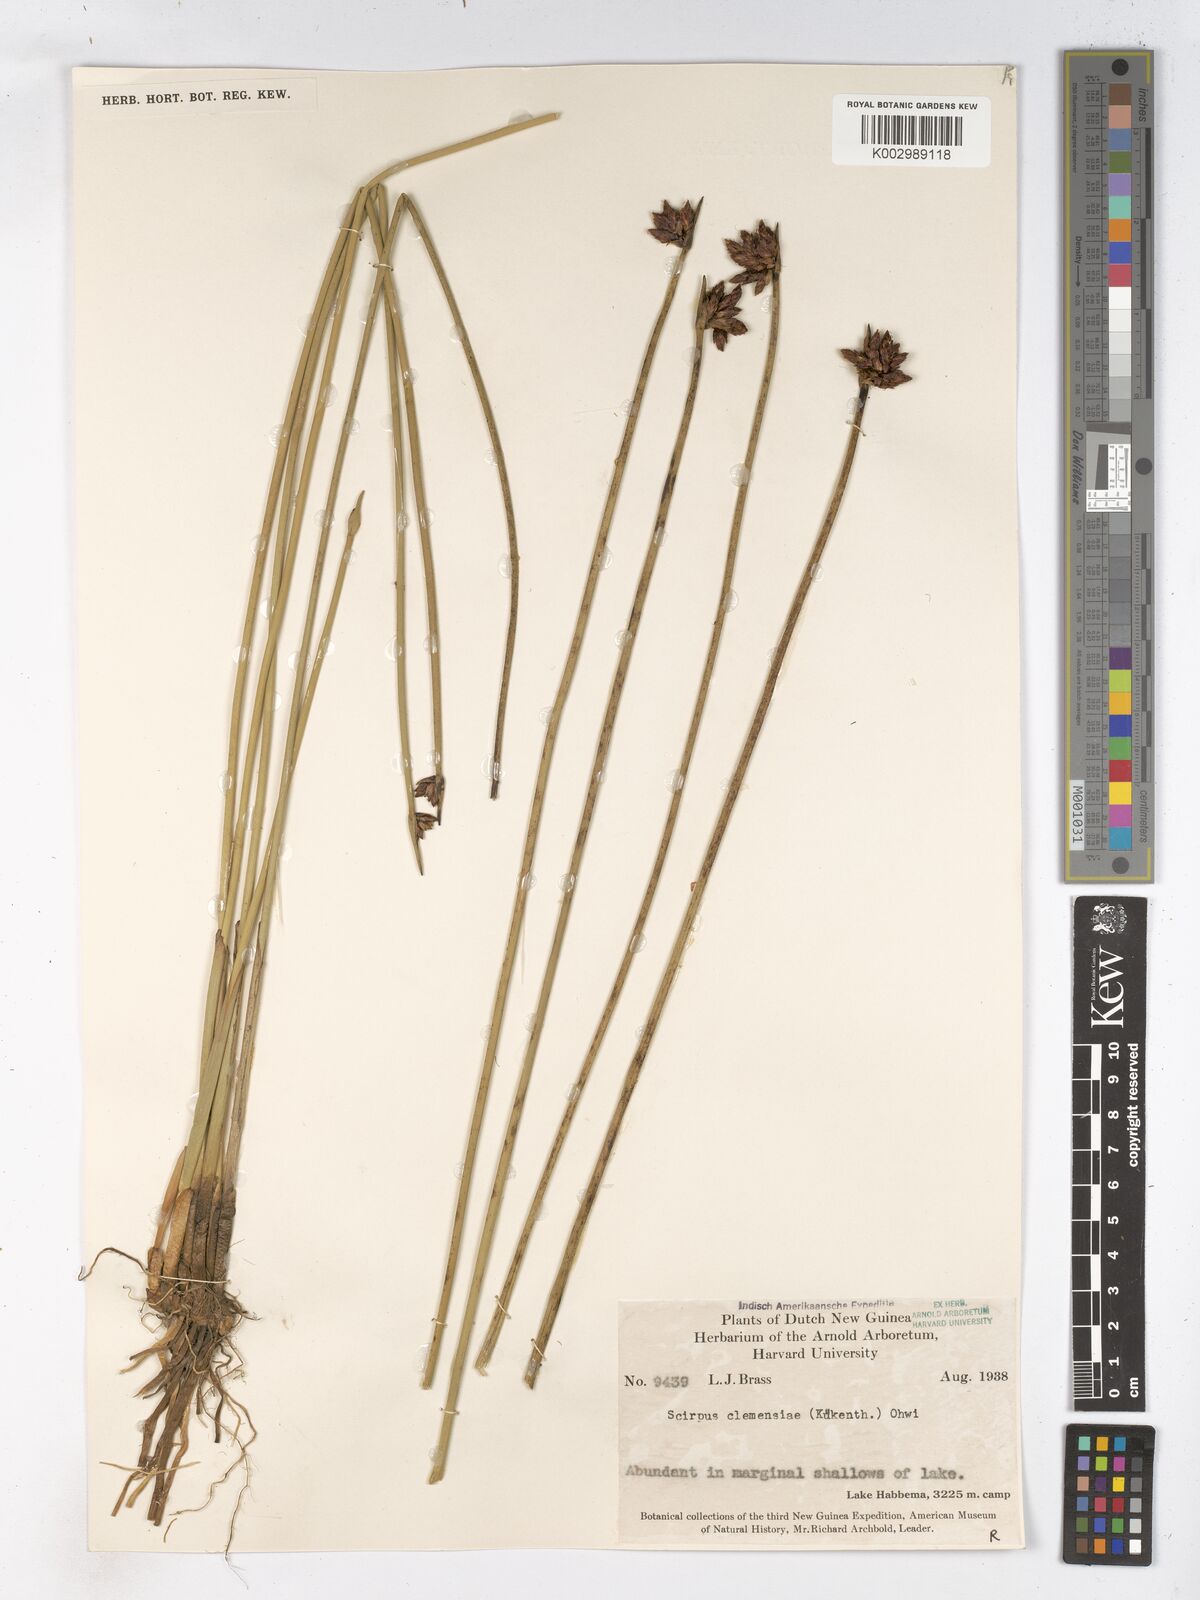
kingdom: Plantae
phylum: Tracheophyta
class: Liliopsida
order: Poales
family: Cyperaceae
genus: Schoenoplectiella
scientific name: Schoenoplectiella clemensiae
